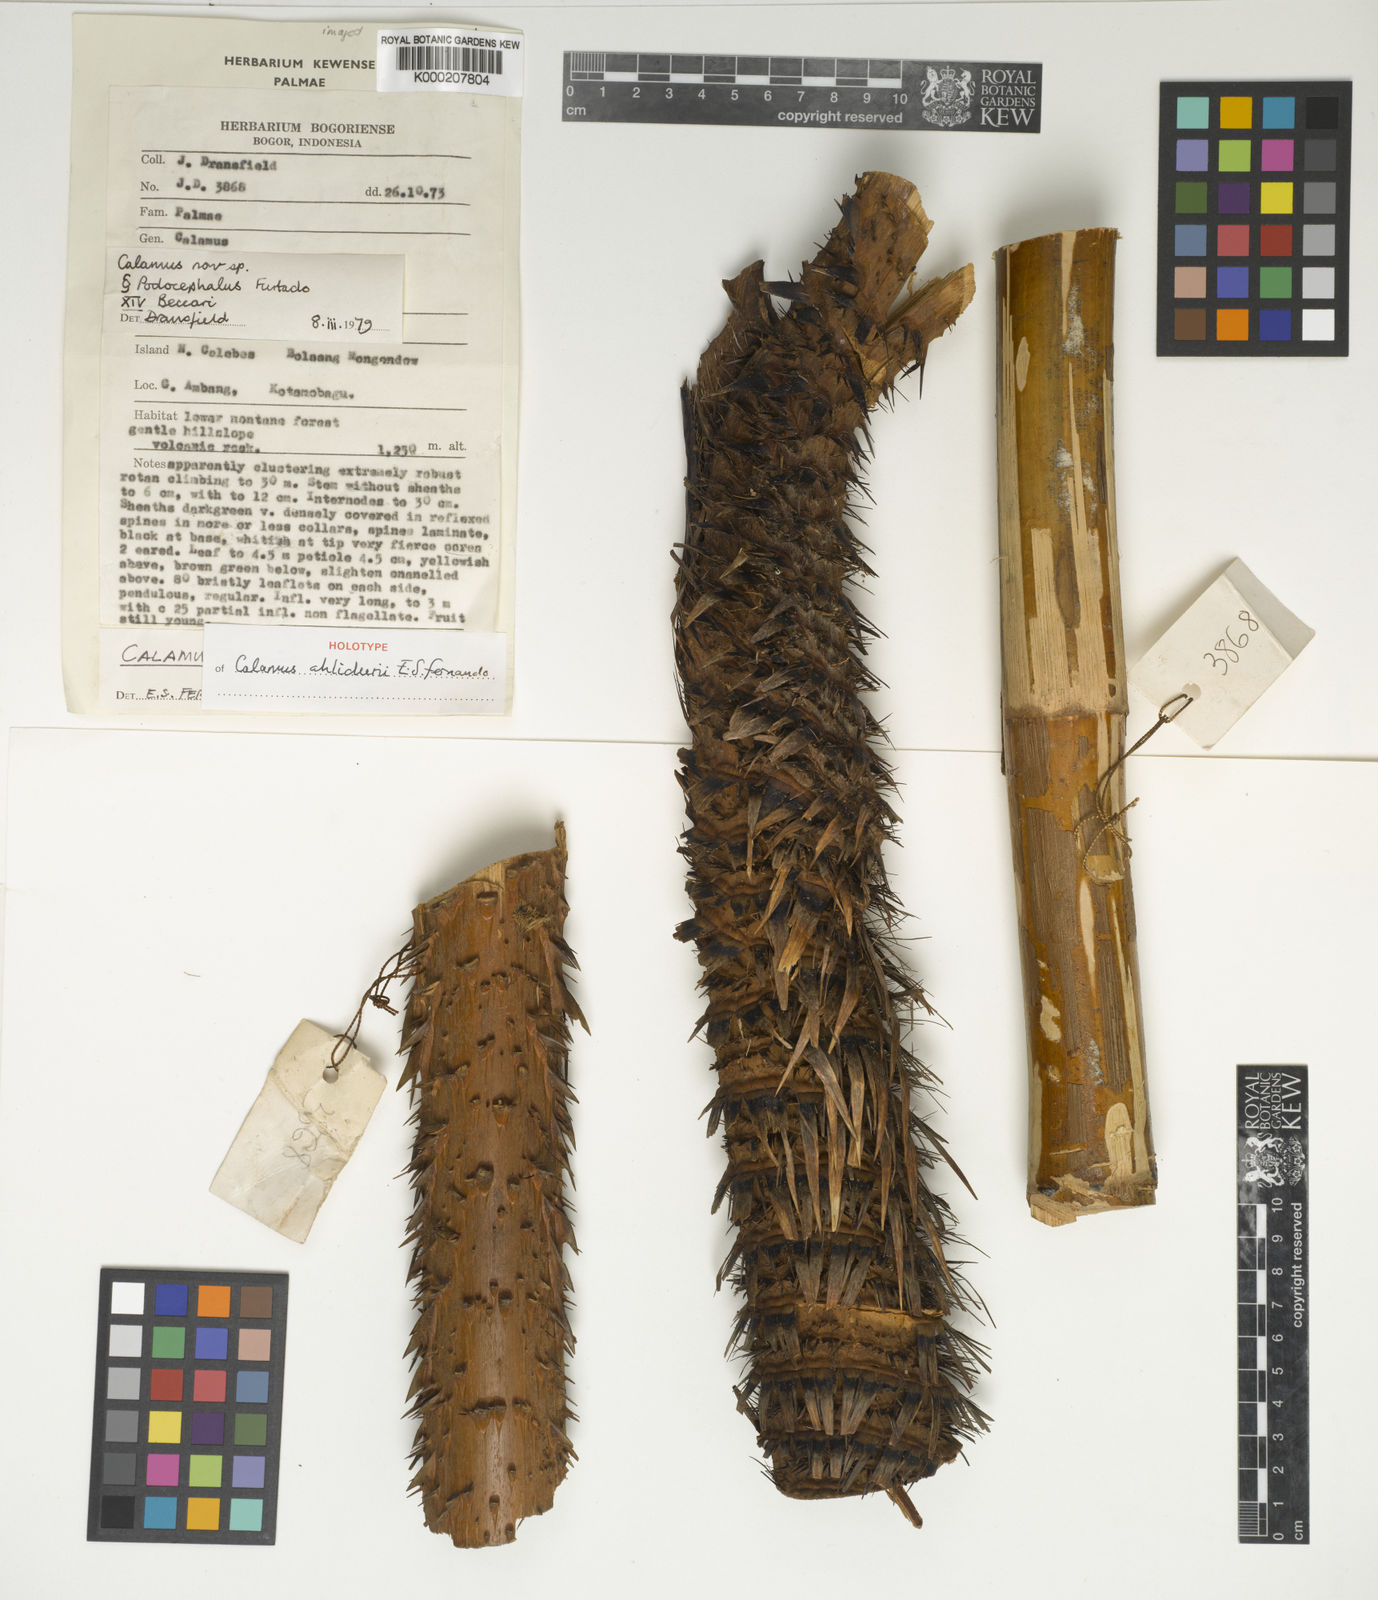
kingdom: Plantae
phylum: Tracheophyta
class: Liliopsida
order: Arecales
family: Arecaceae
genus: Calamus
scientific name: Calamus
